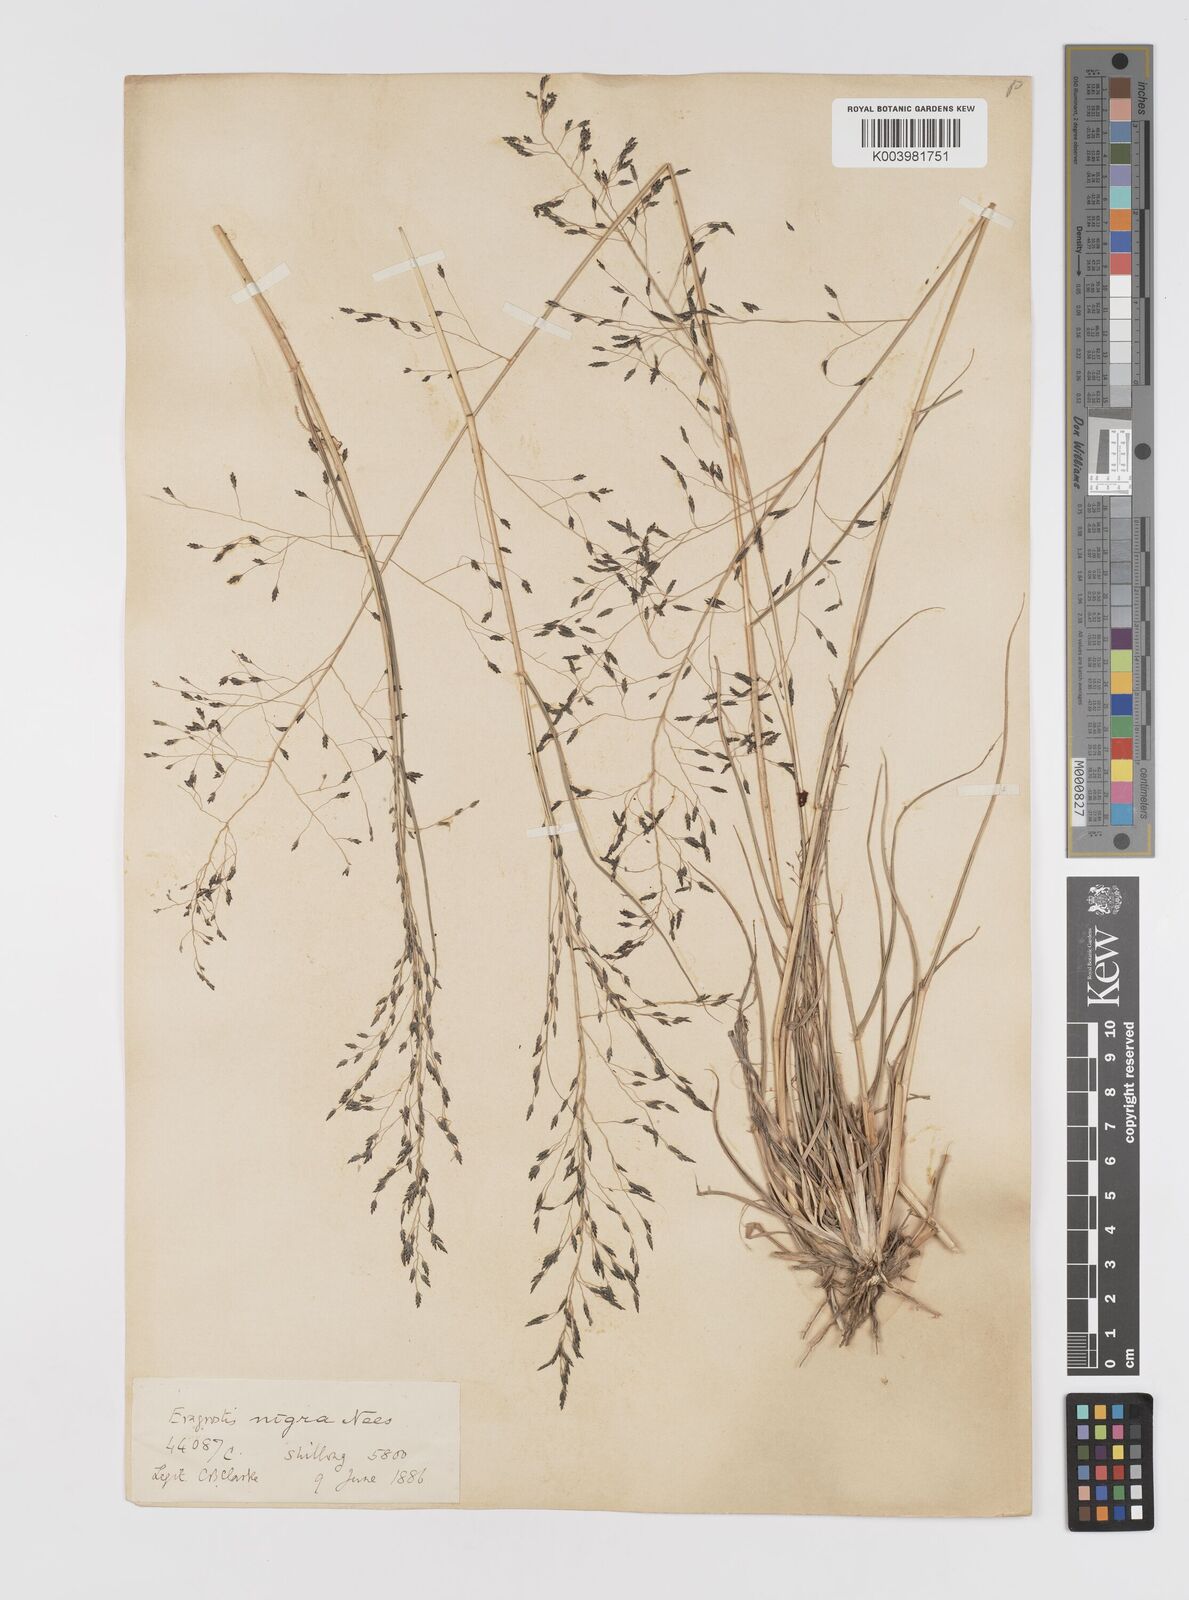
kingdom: Plantae
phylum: Tracheophyta
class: Liliopsida
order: Poales
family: Poaceae
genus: Eragrostis
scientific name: Eragrostis nigra
